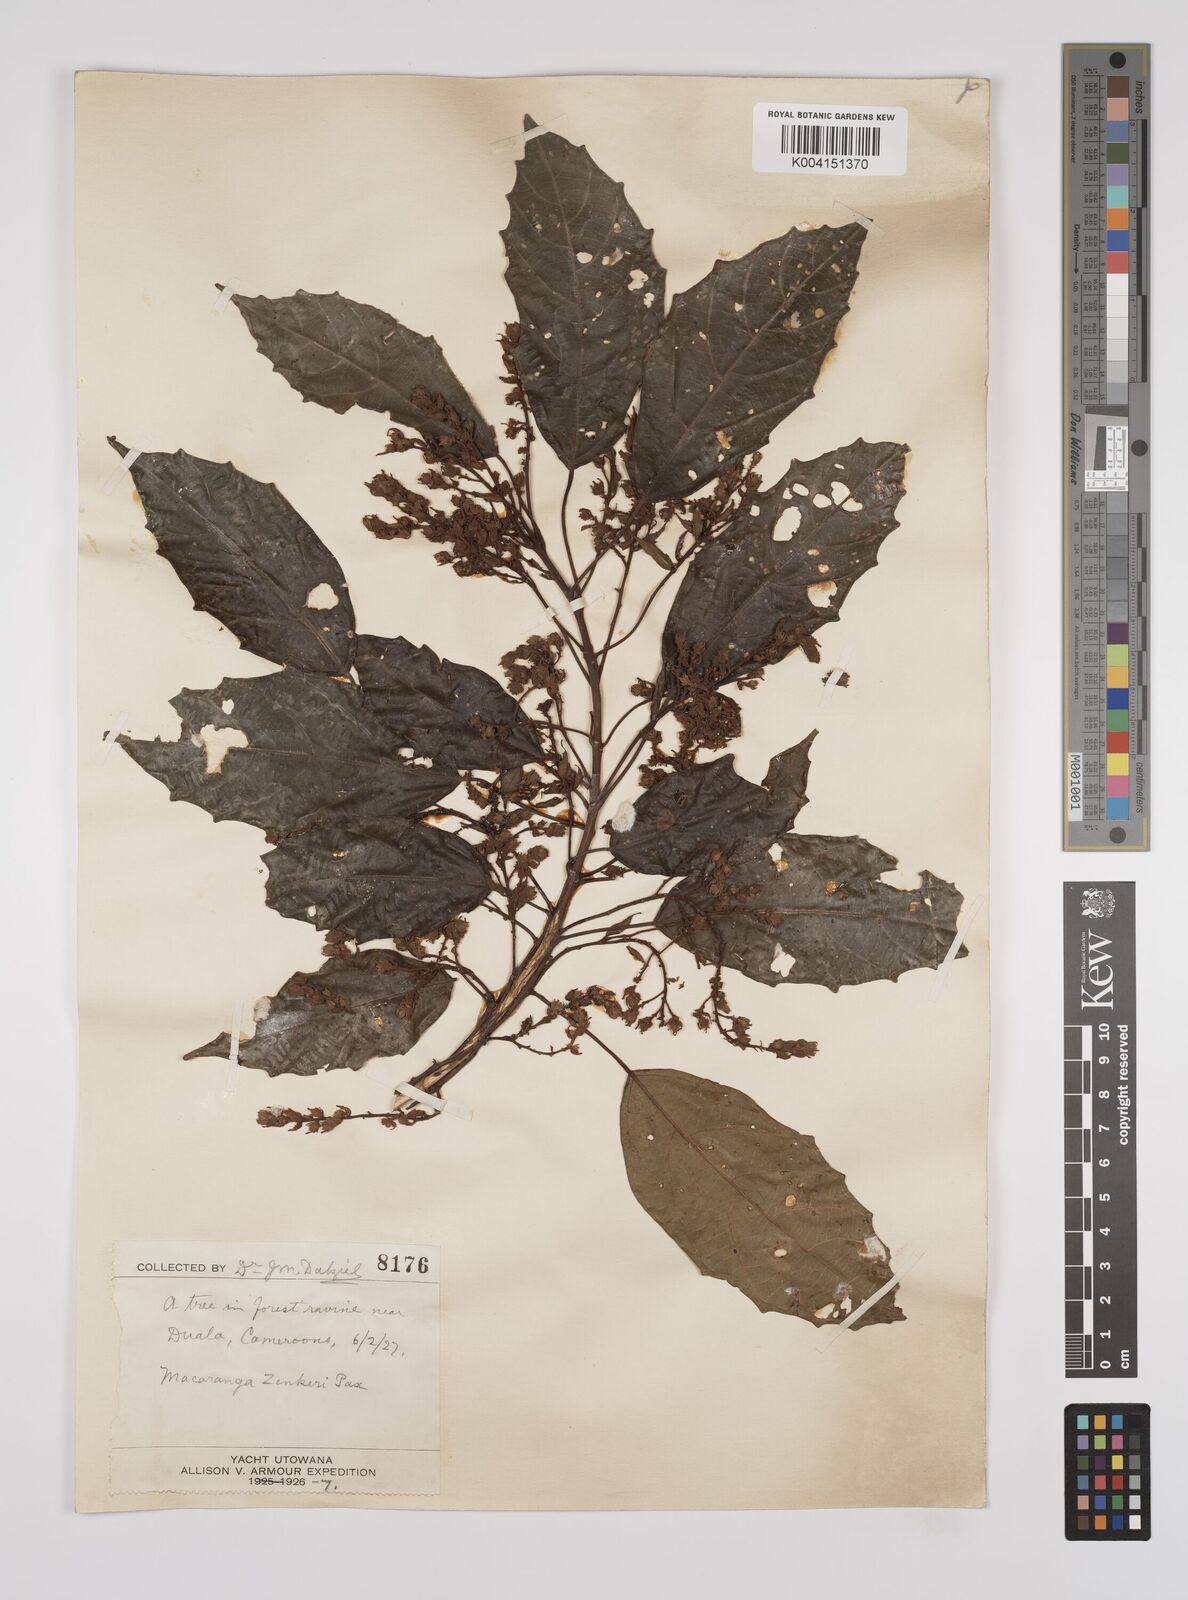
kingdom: Plantae
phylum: Tracheophyta
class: Magnoliopsida
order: Malpighiales
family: Euphorbiaceae
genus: Macaranga
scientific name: Macaranga monandra
